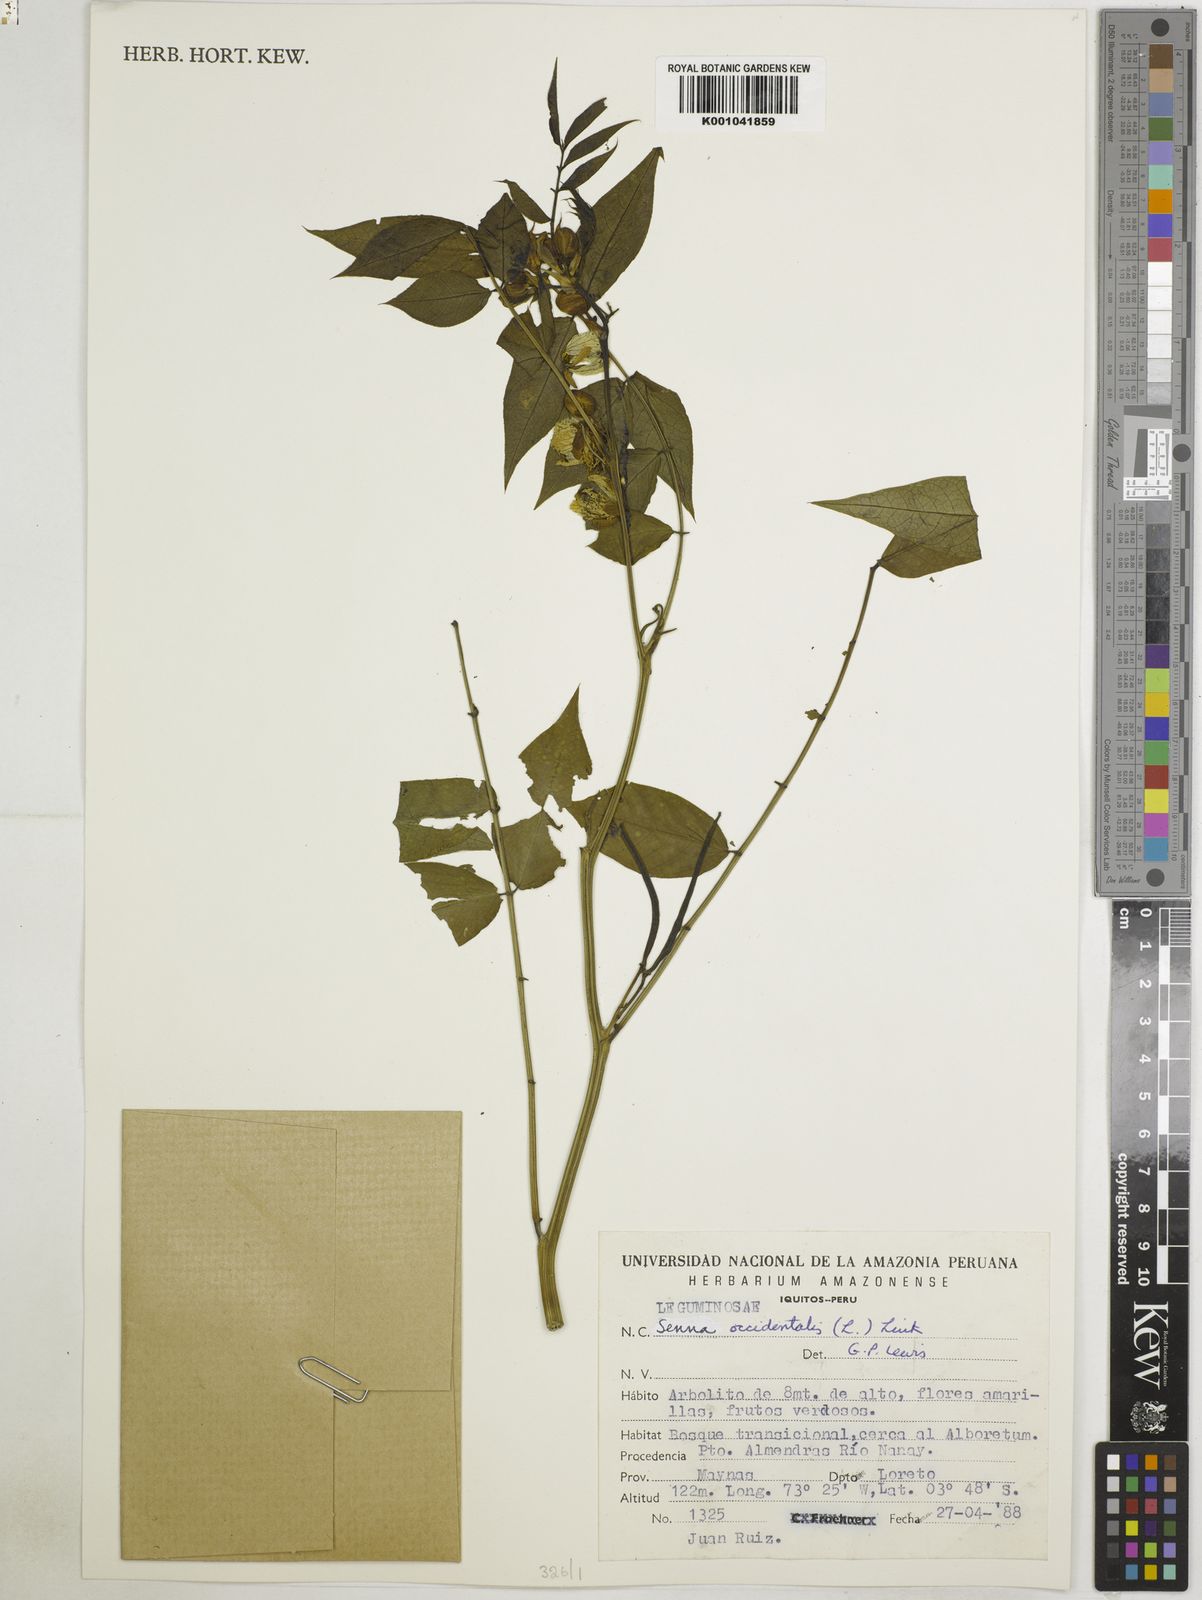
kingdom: Plantae
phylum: Tracheophyta
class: Magnoliopsida
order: Fabales
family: Fabaceae
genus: Senna
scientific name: Senna occidentalis
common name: Septicweed
